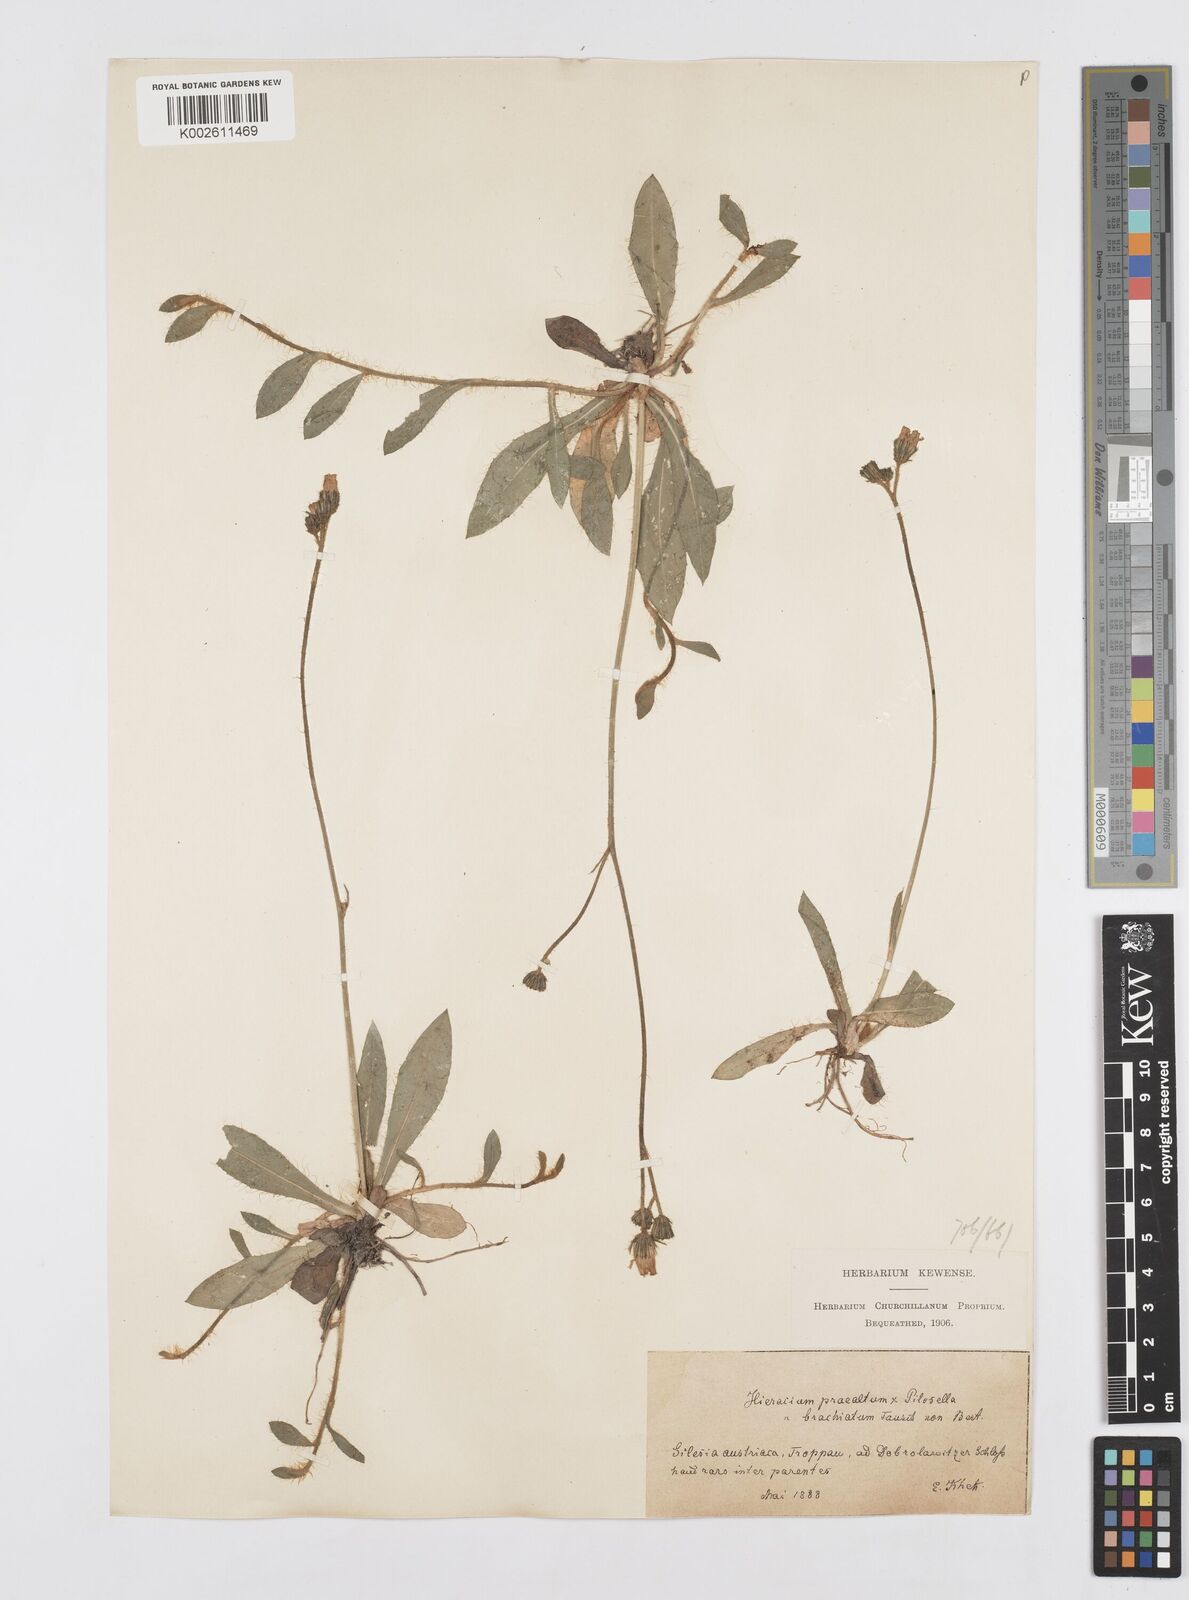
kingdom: Plantae
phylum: Tracheophyta
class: Magnoliopsida
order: Asterales
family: Asteraceae
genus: Pilosella
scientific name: Pilosella acutifolia
